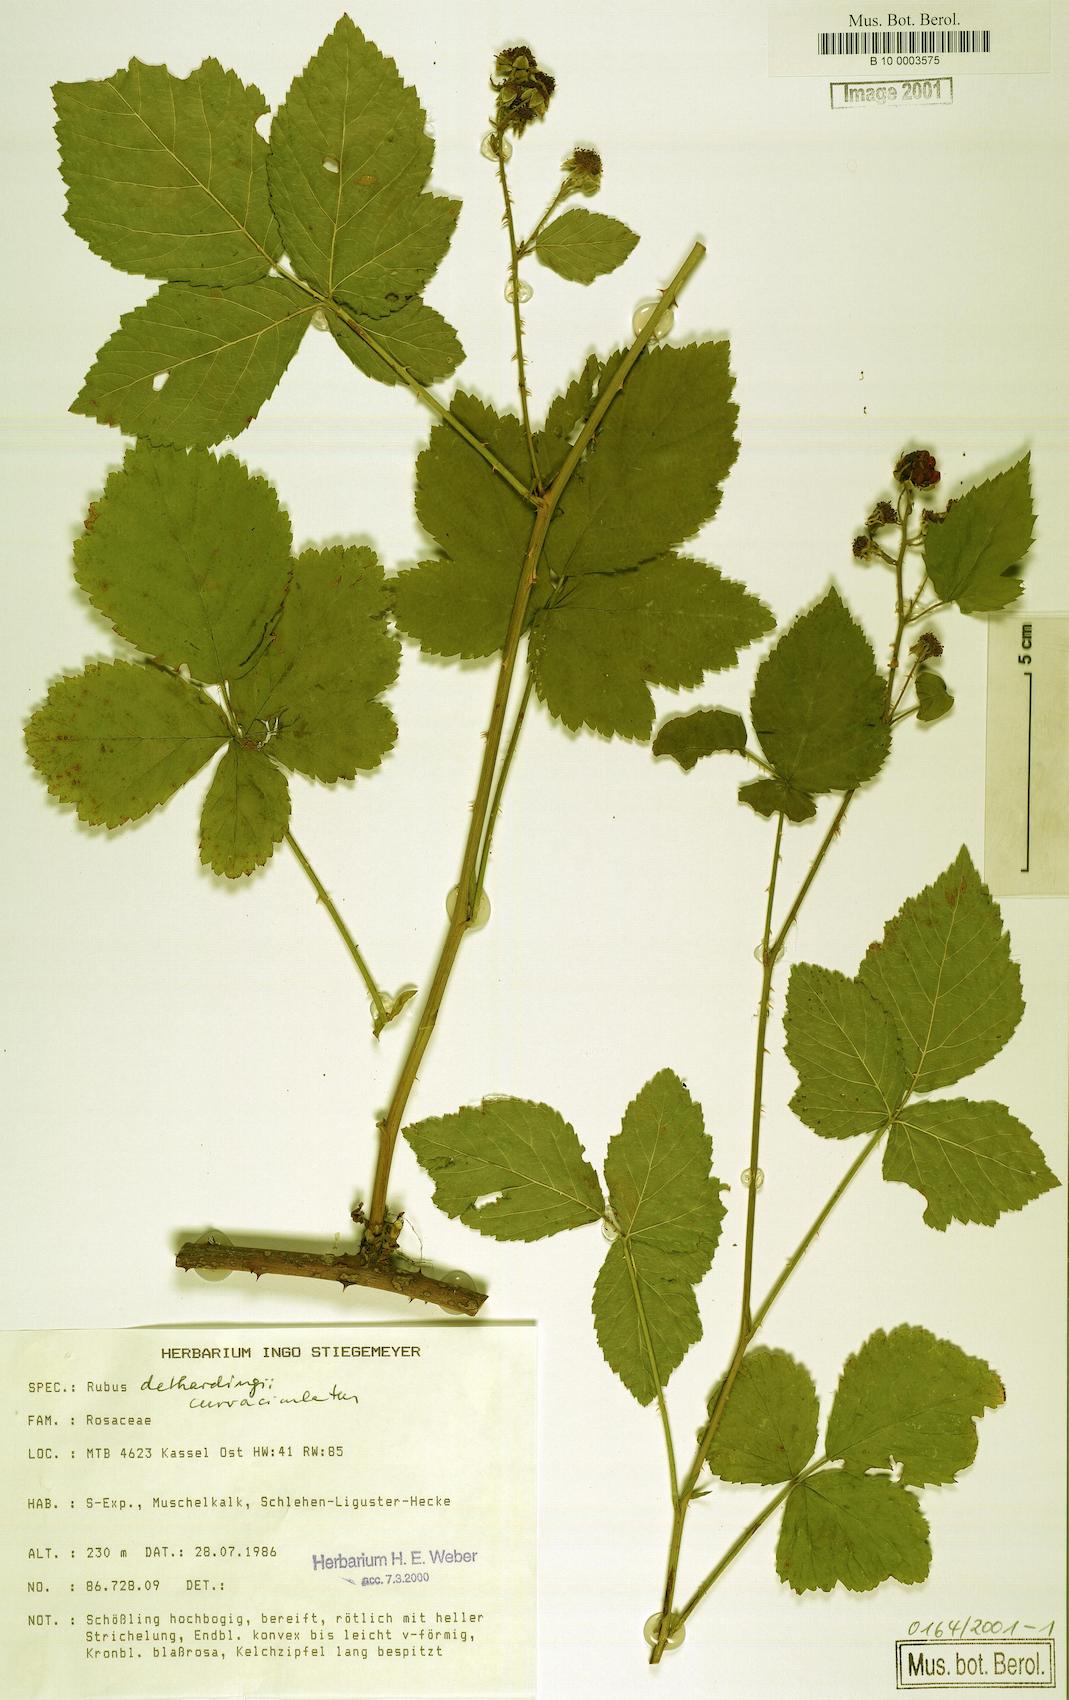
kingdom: Plantae
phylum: Tracheophyta
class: Magnoliopsida
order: Rosales
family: Rosaceae
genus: Rubus
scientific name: Rubus curvaciculatus
